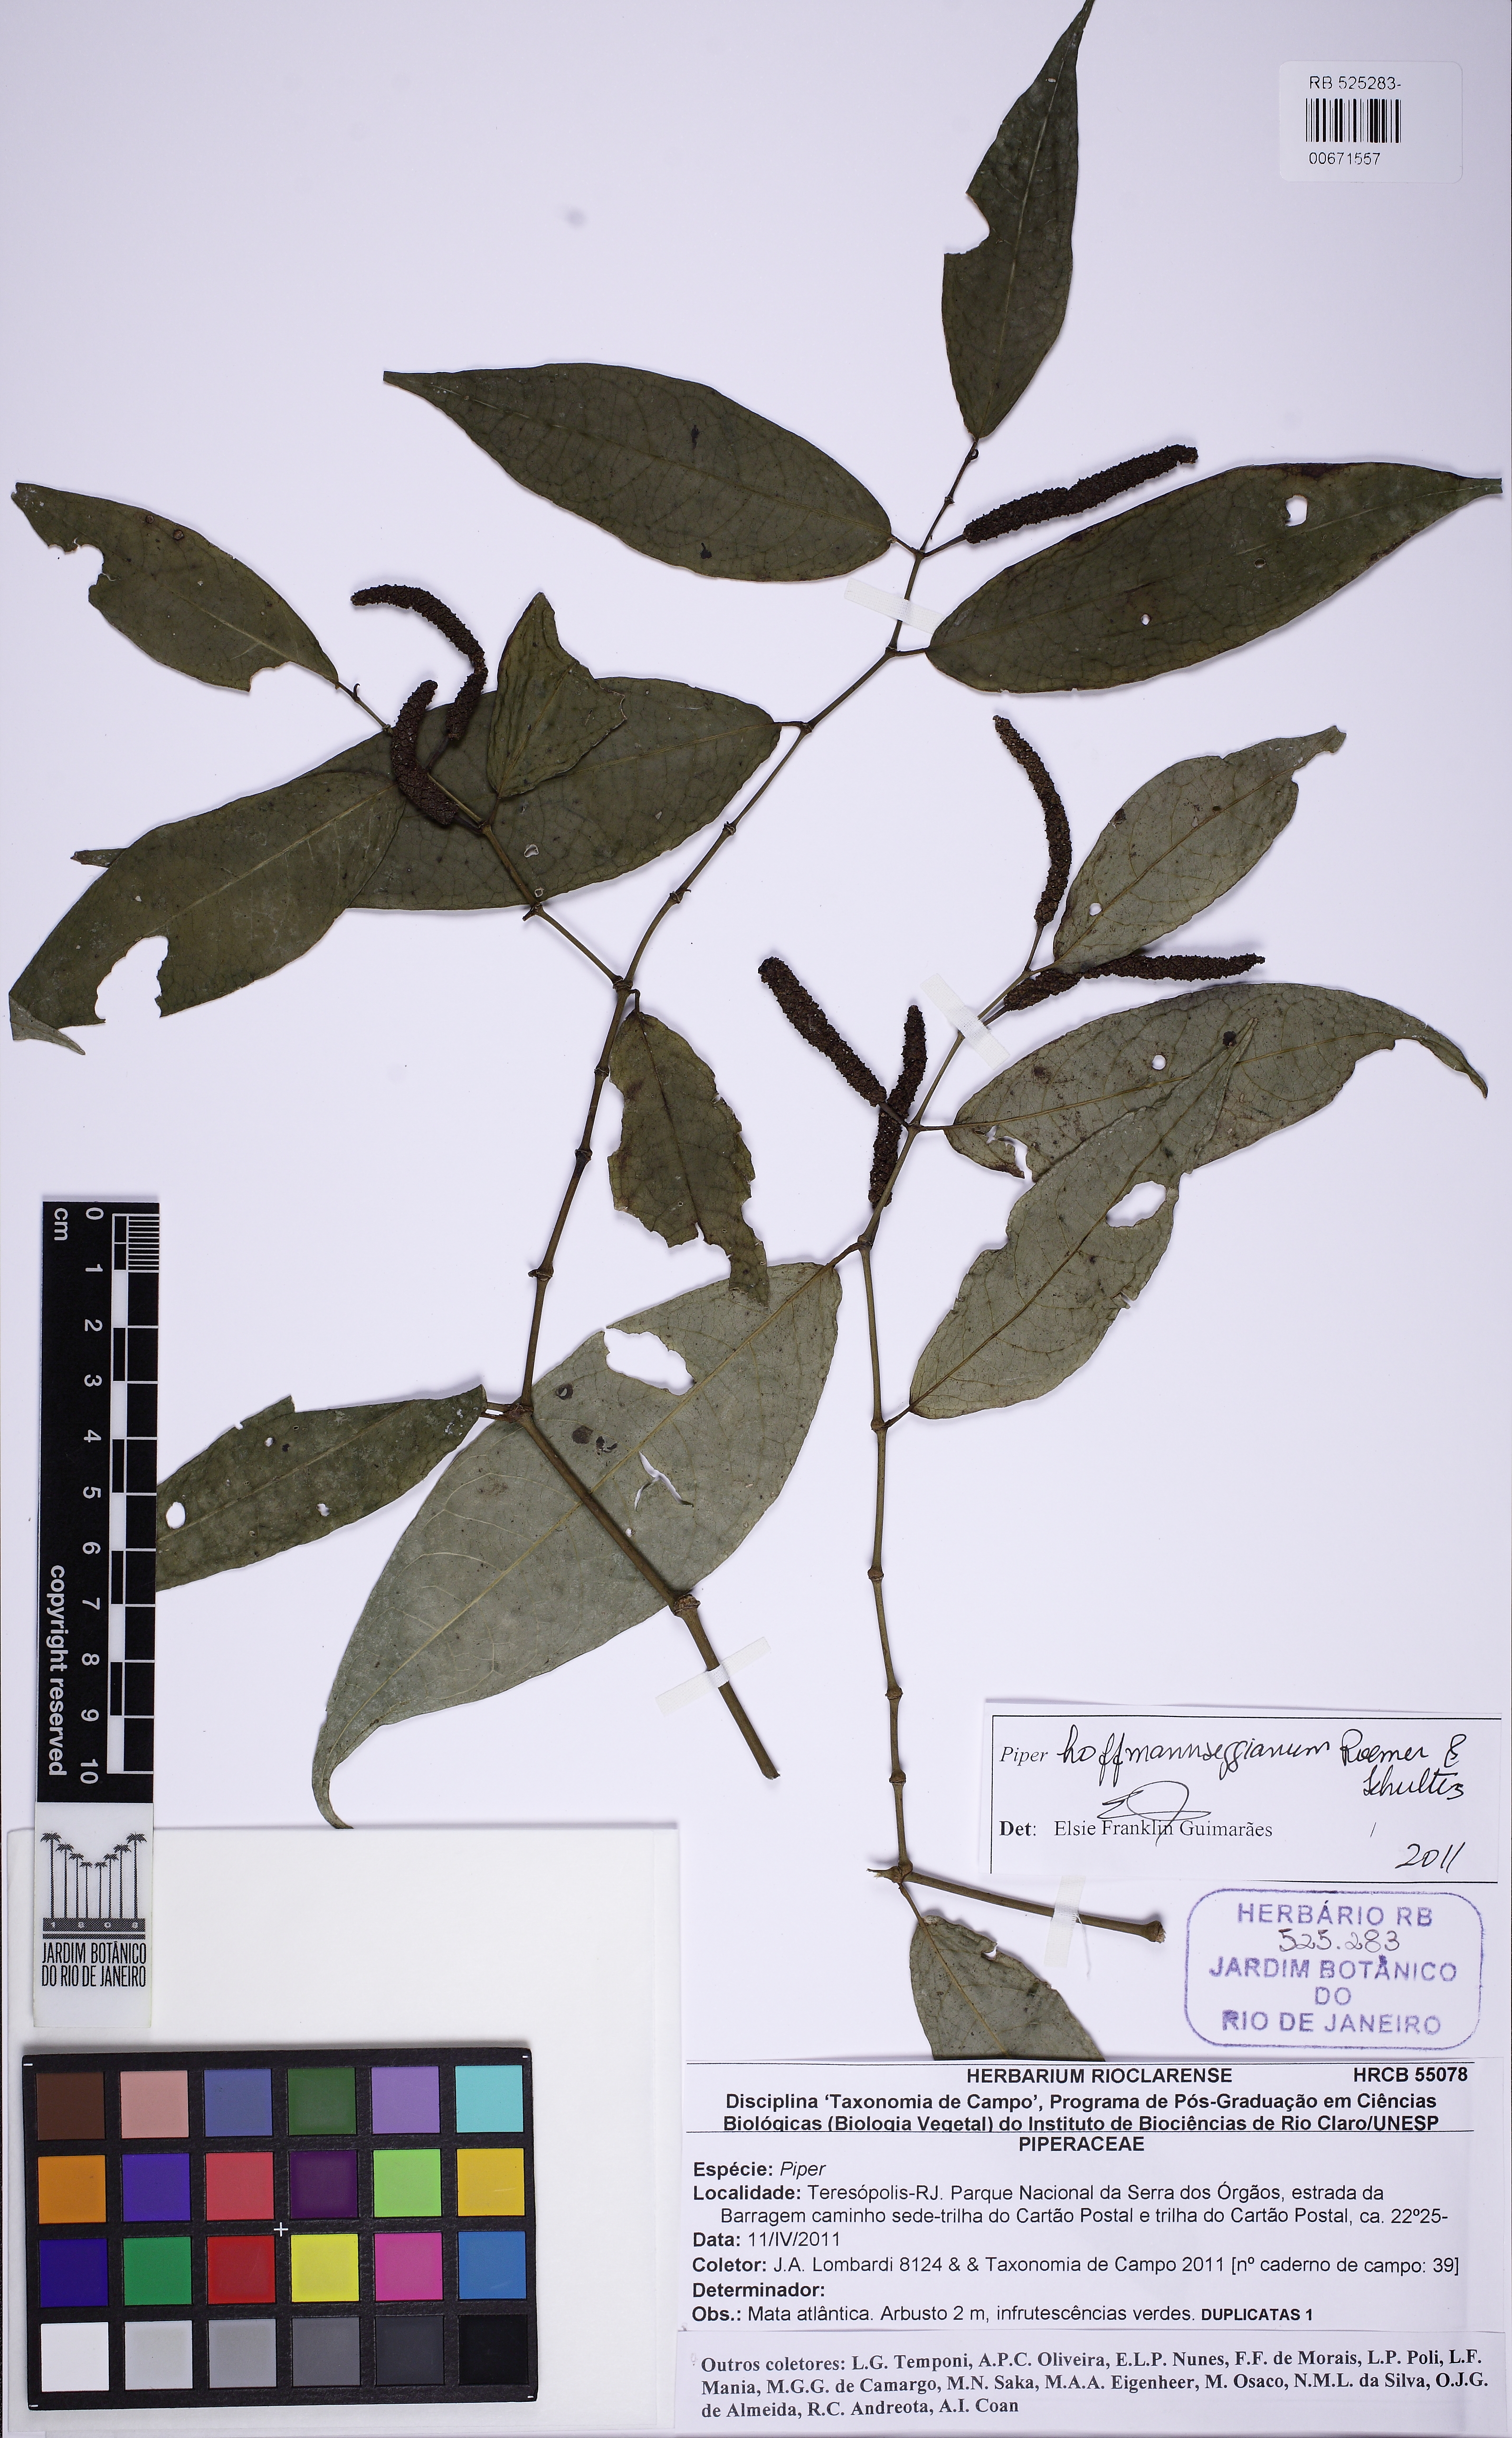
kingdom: Plantae
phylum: Tracheophyta
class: Magnoliopsida
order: Piperales
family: Piperaceae
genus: Piper
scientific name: Piper hoffmannseggianum
